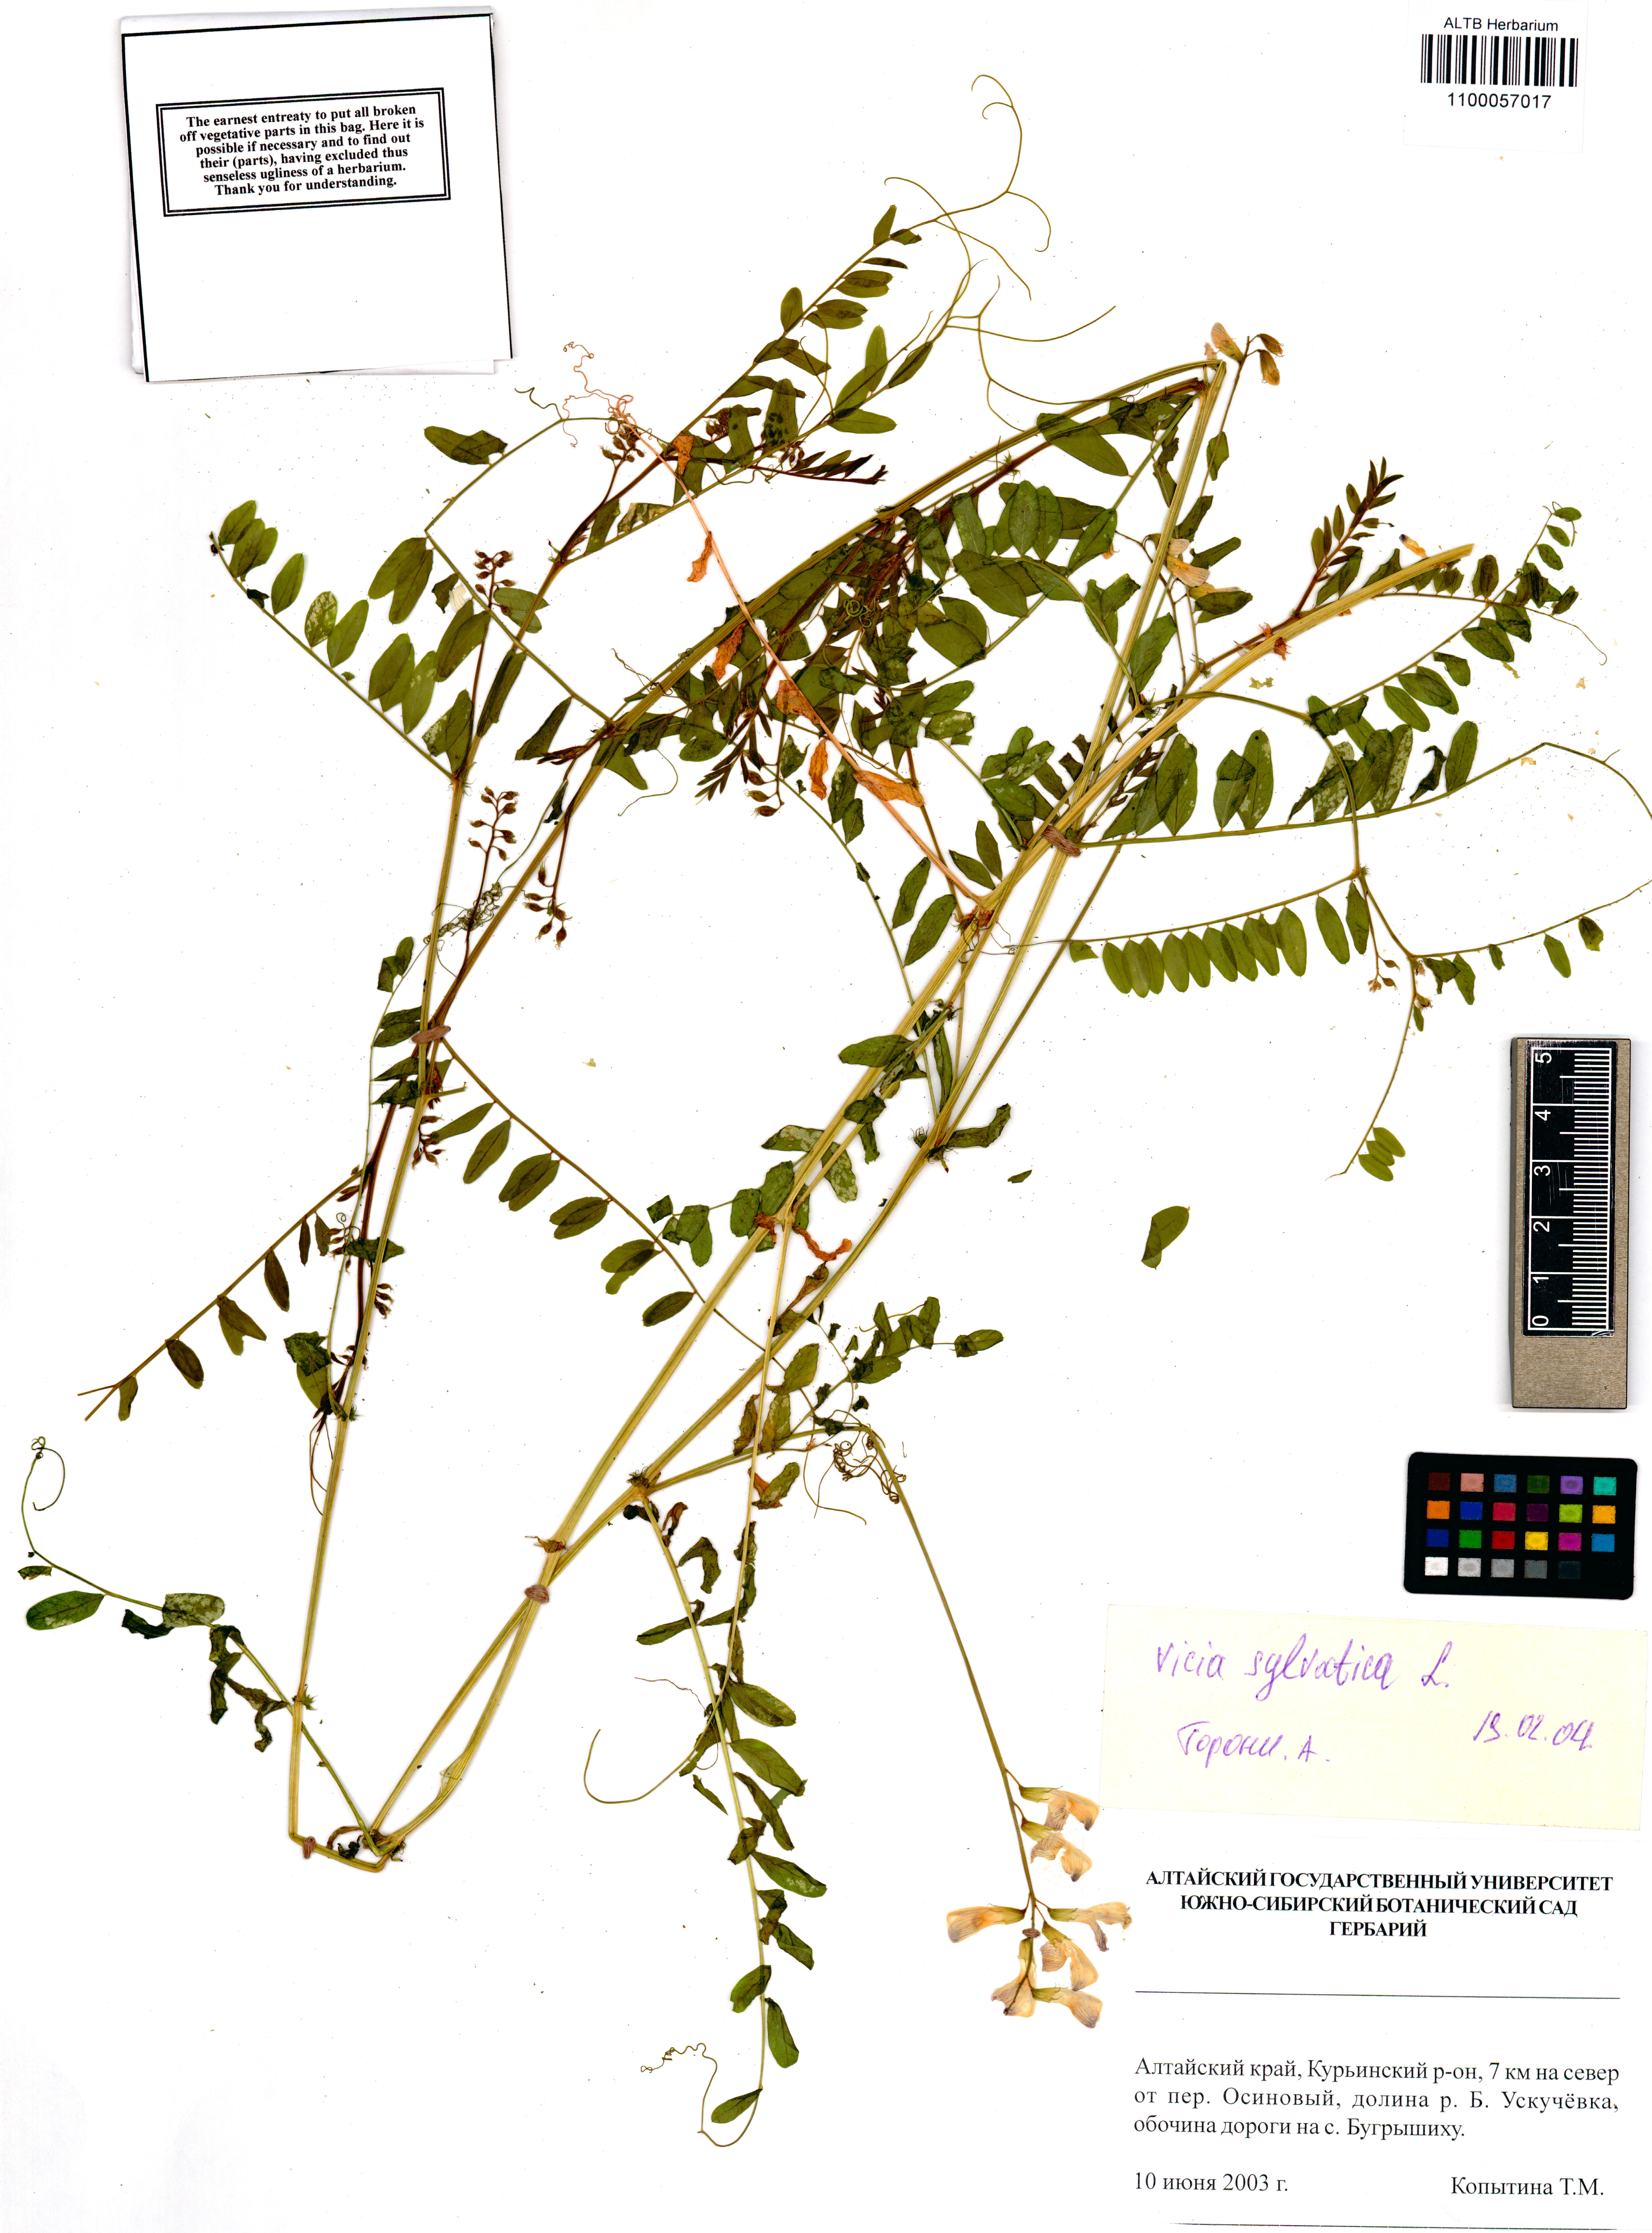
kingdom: Plantae
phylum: Tracheophyta
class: Magnoliopsida
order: Fabales
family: Fabaceae
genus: Vicia
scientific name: Vicia sylvatica
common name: Wood vetch
